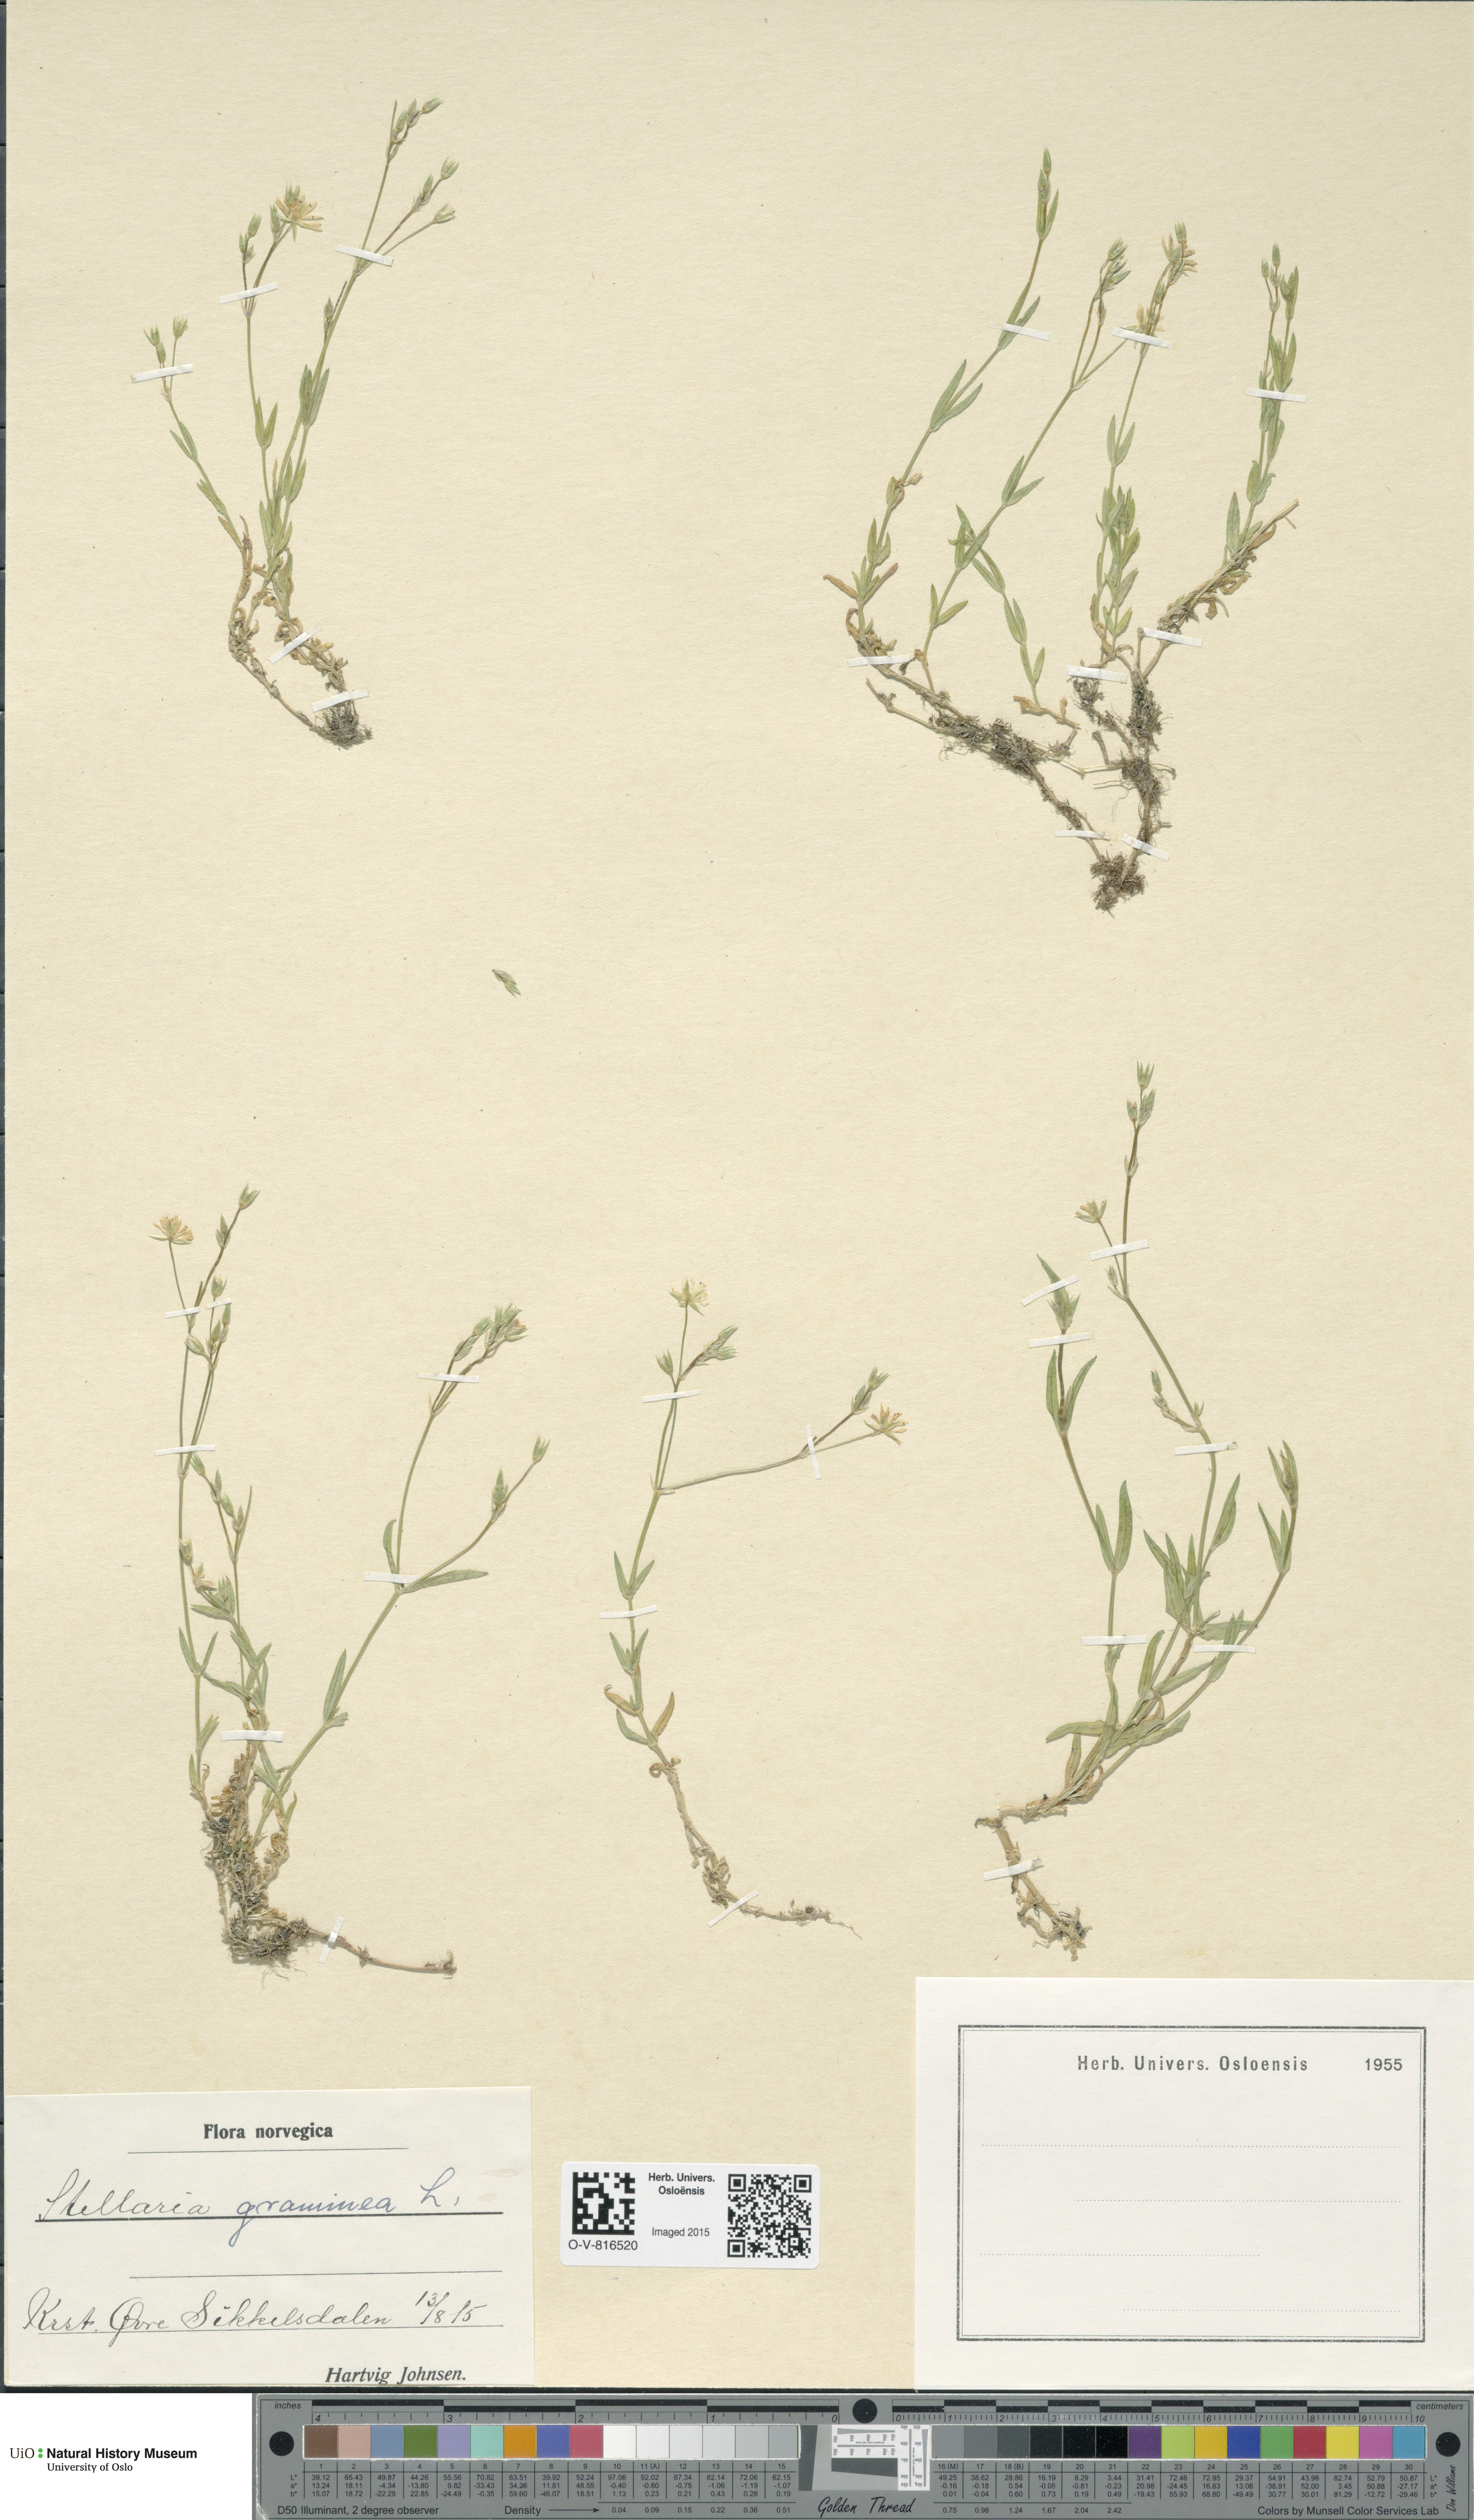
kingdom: Plantae
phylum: Tracheophyta
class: Magnoliopsida
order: Caryophyllales
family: Caryophyllaceae
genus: Stellaria
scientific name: Stellaria graminea
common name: Grass-like starwort
